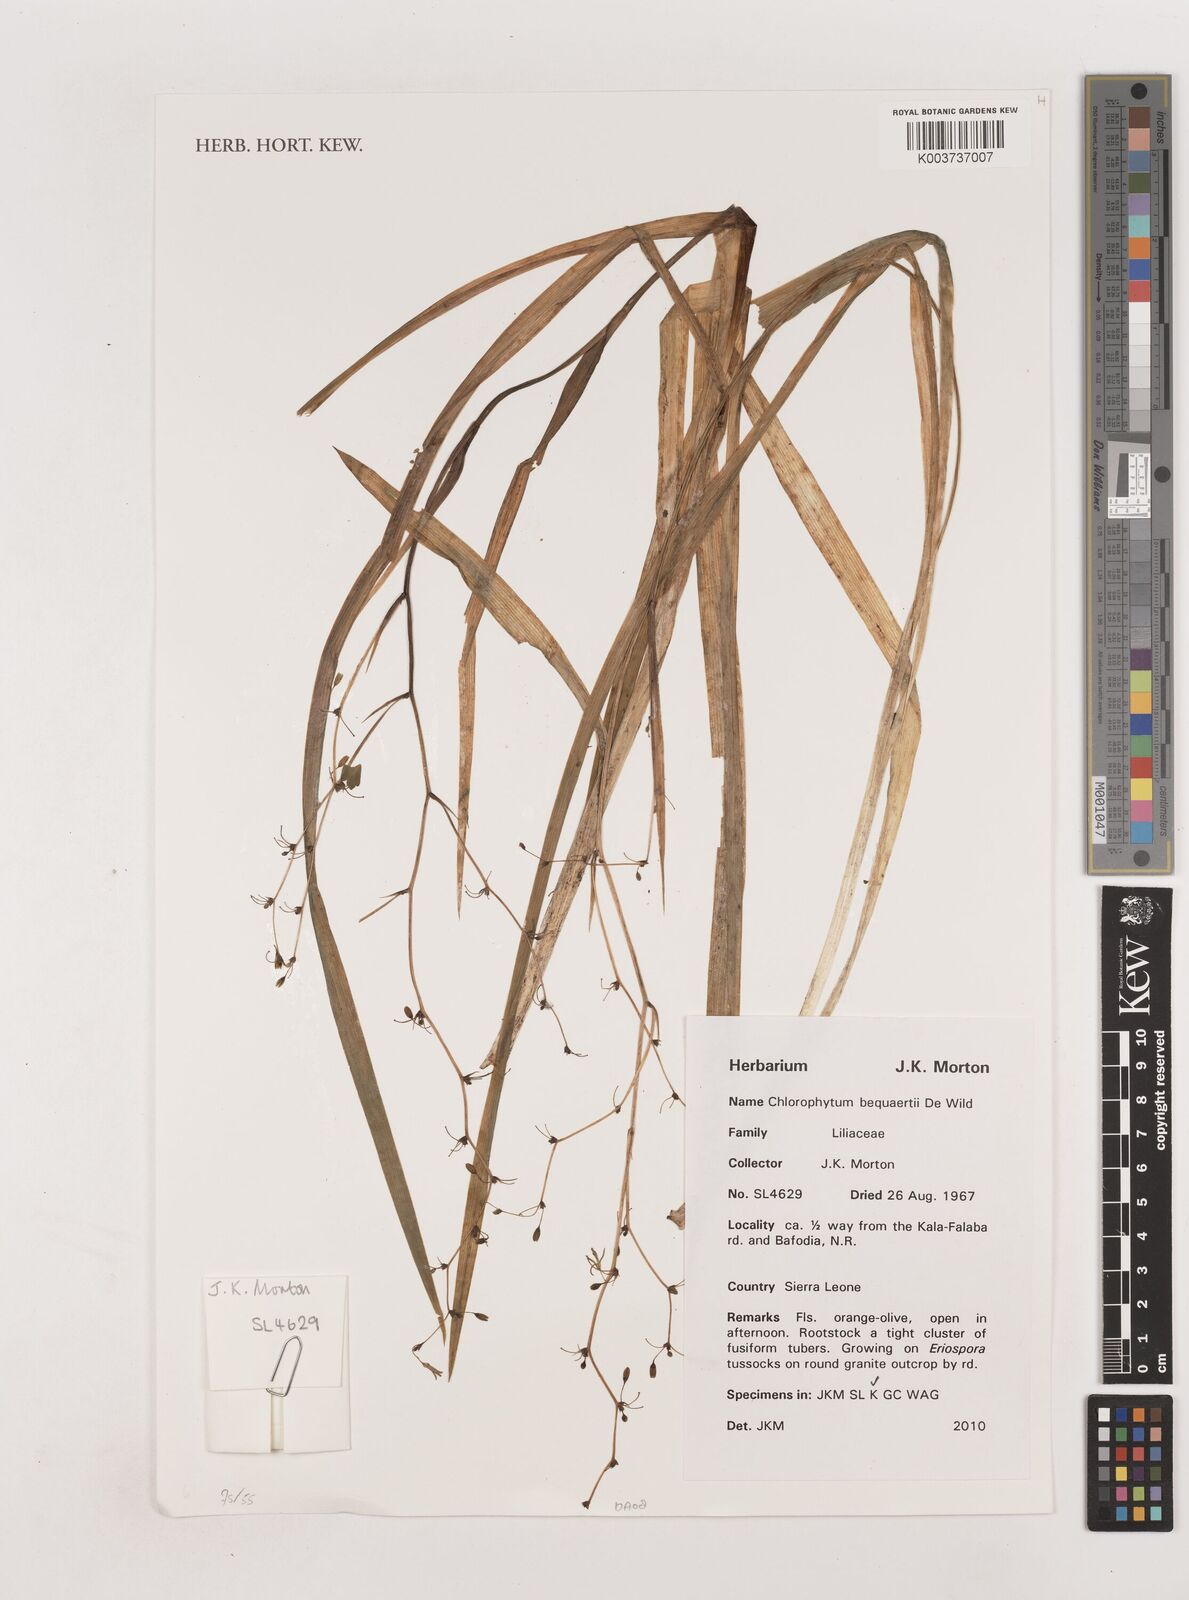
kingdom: Plantae
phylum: Tracheophyta
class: Liliopsida
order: Asparagales
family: Asparagaceae
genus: Chlorophytum
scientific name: Chlorophytum gallabatense
